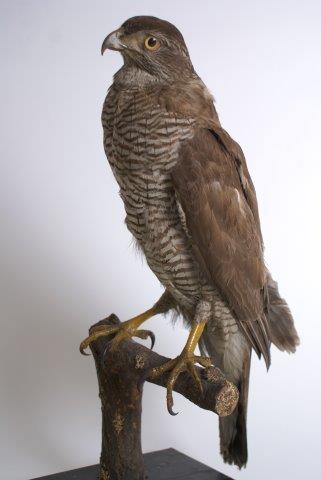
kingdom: Animalia
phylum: Chordata
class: Aves
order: Accipitriformes
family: Accipitridae
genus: Accipiter
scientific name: Accipiter gentilis
